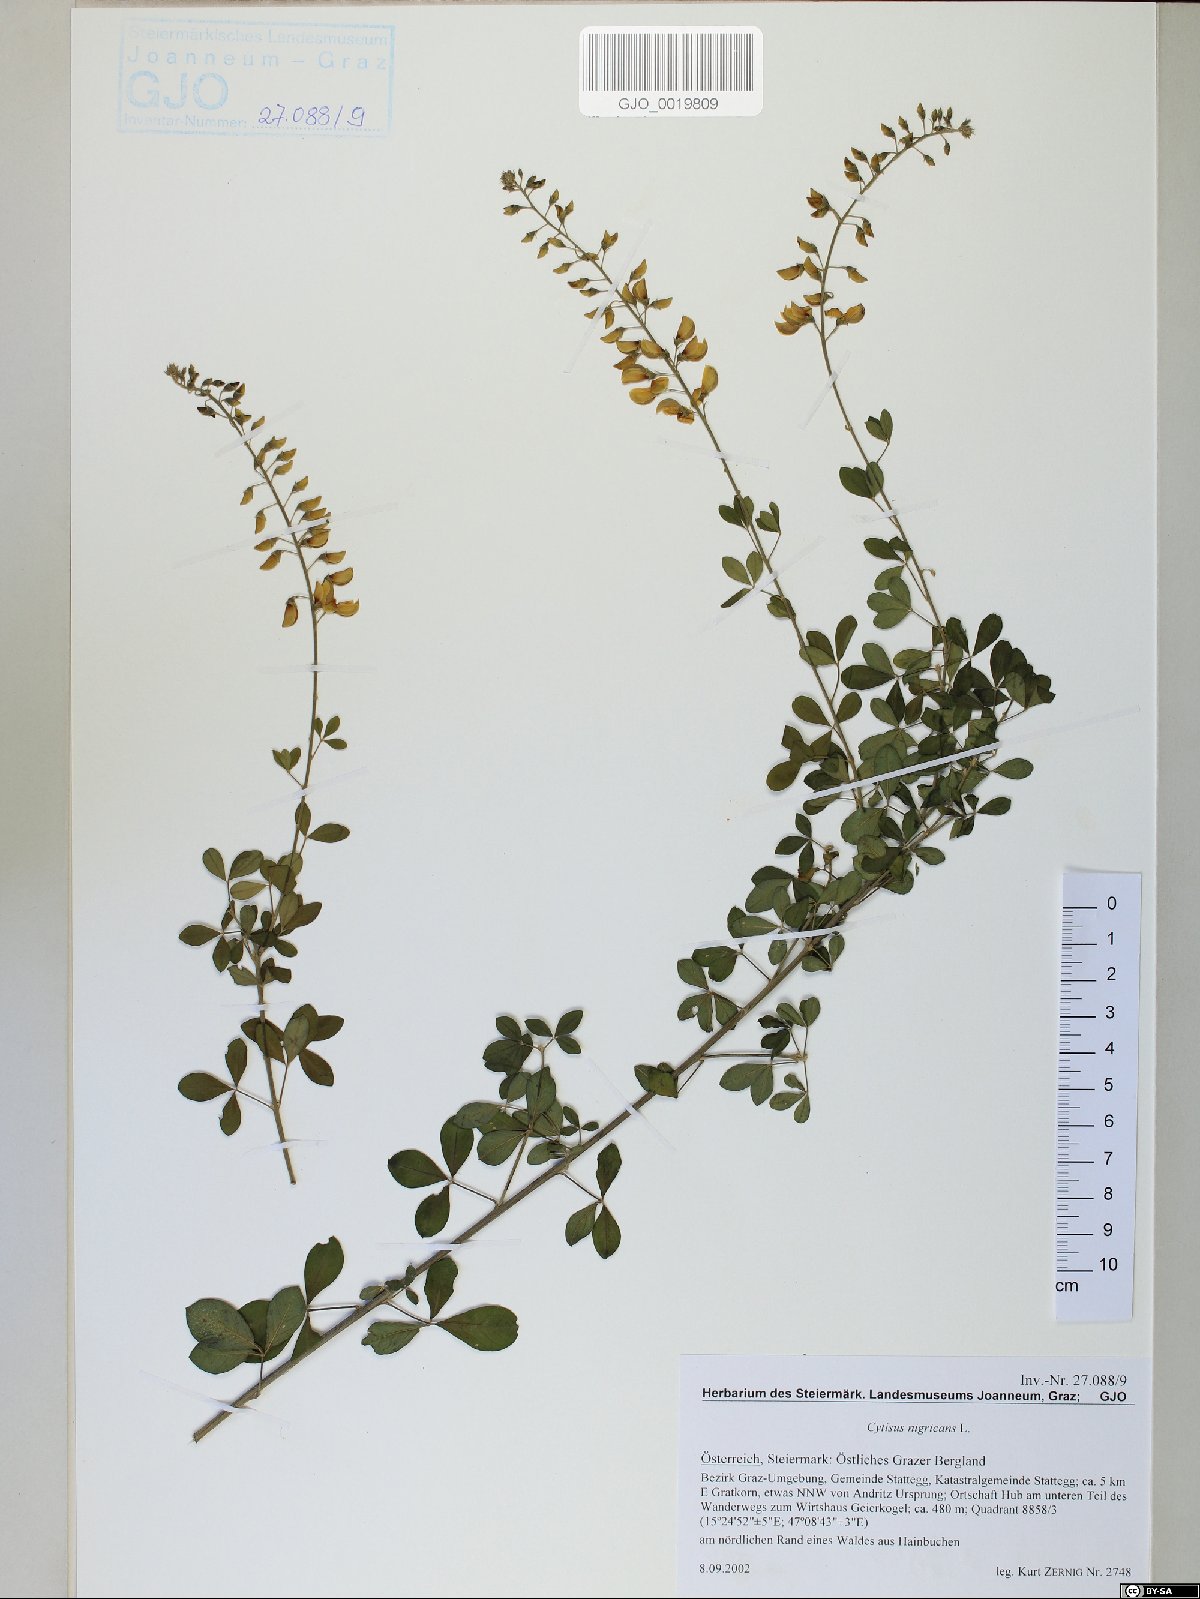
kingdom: Plantae
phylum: Tracheophyta
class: Magnoliopsida
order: Fabales
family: Fabaceae
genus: Cytisus
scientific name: Cytisus nigricans
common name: Black broom
